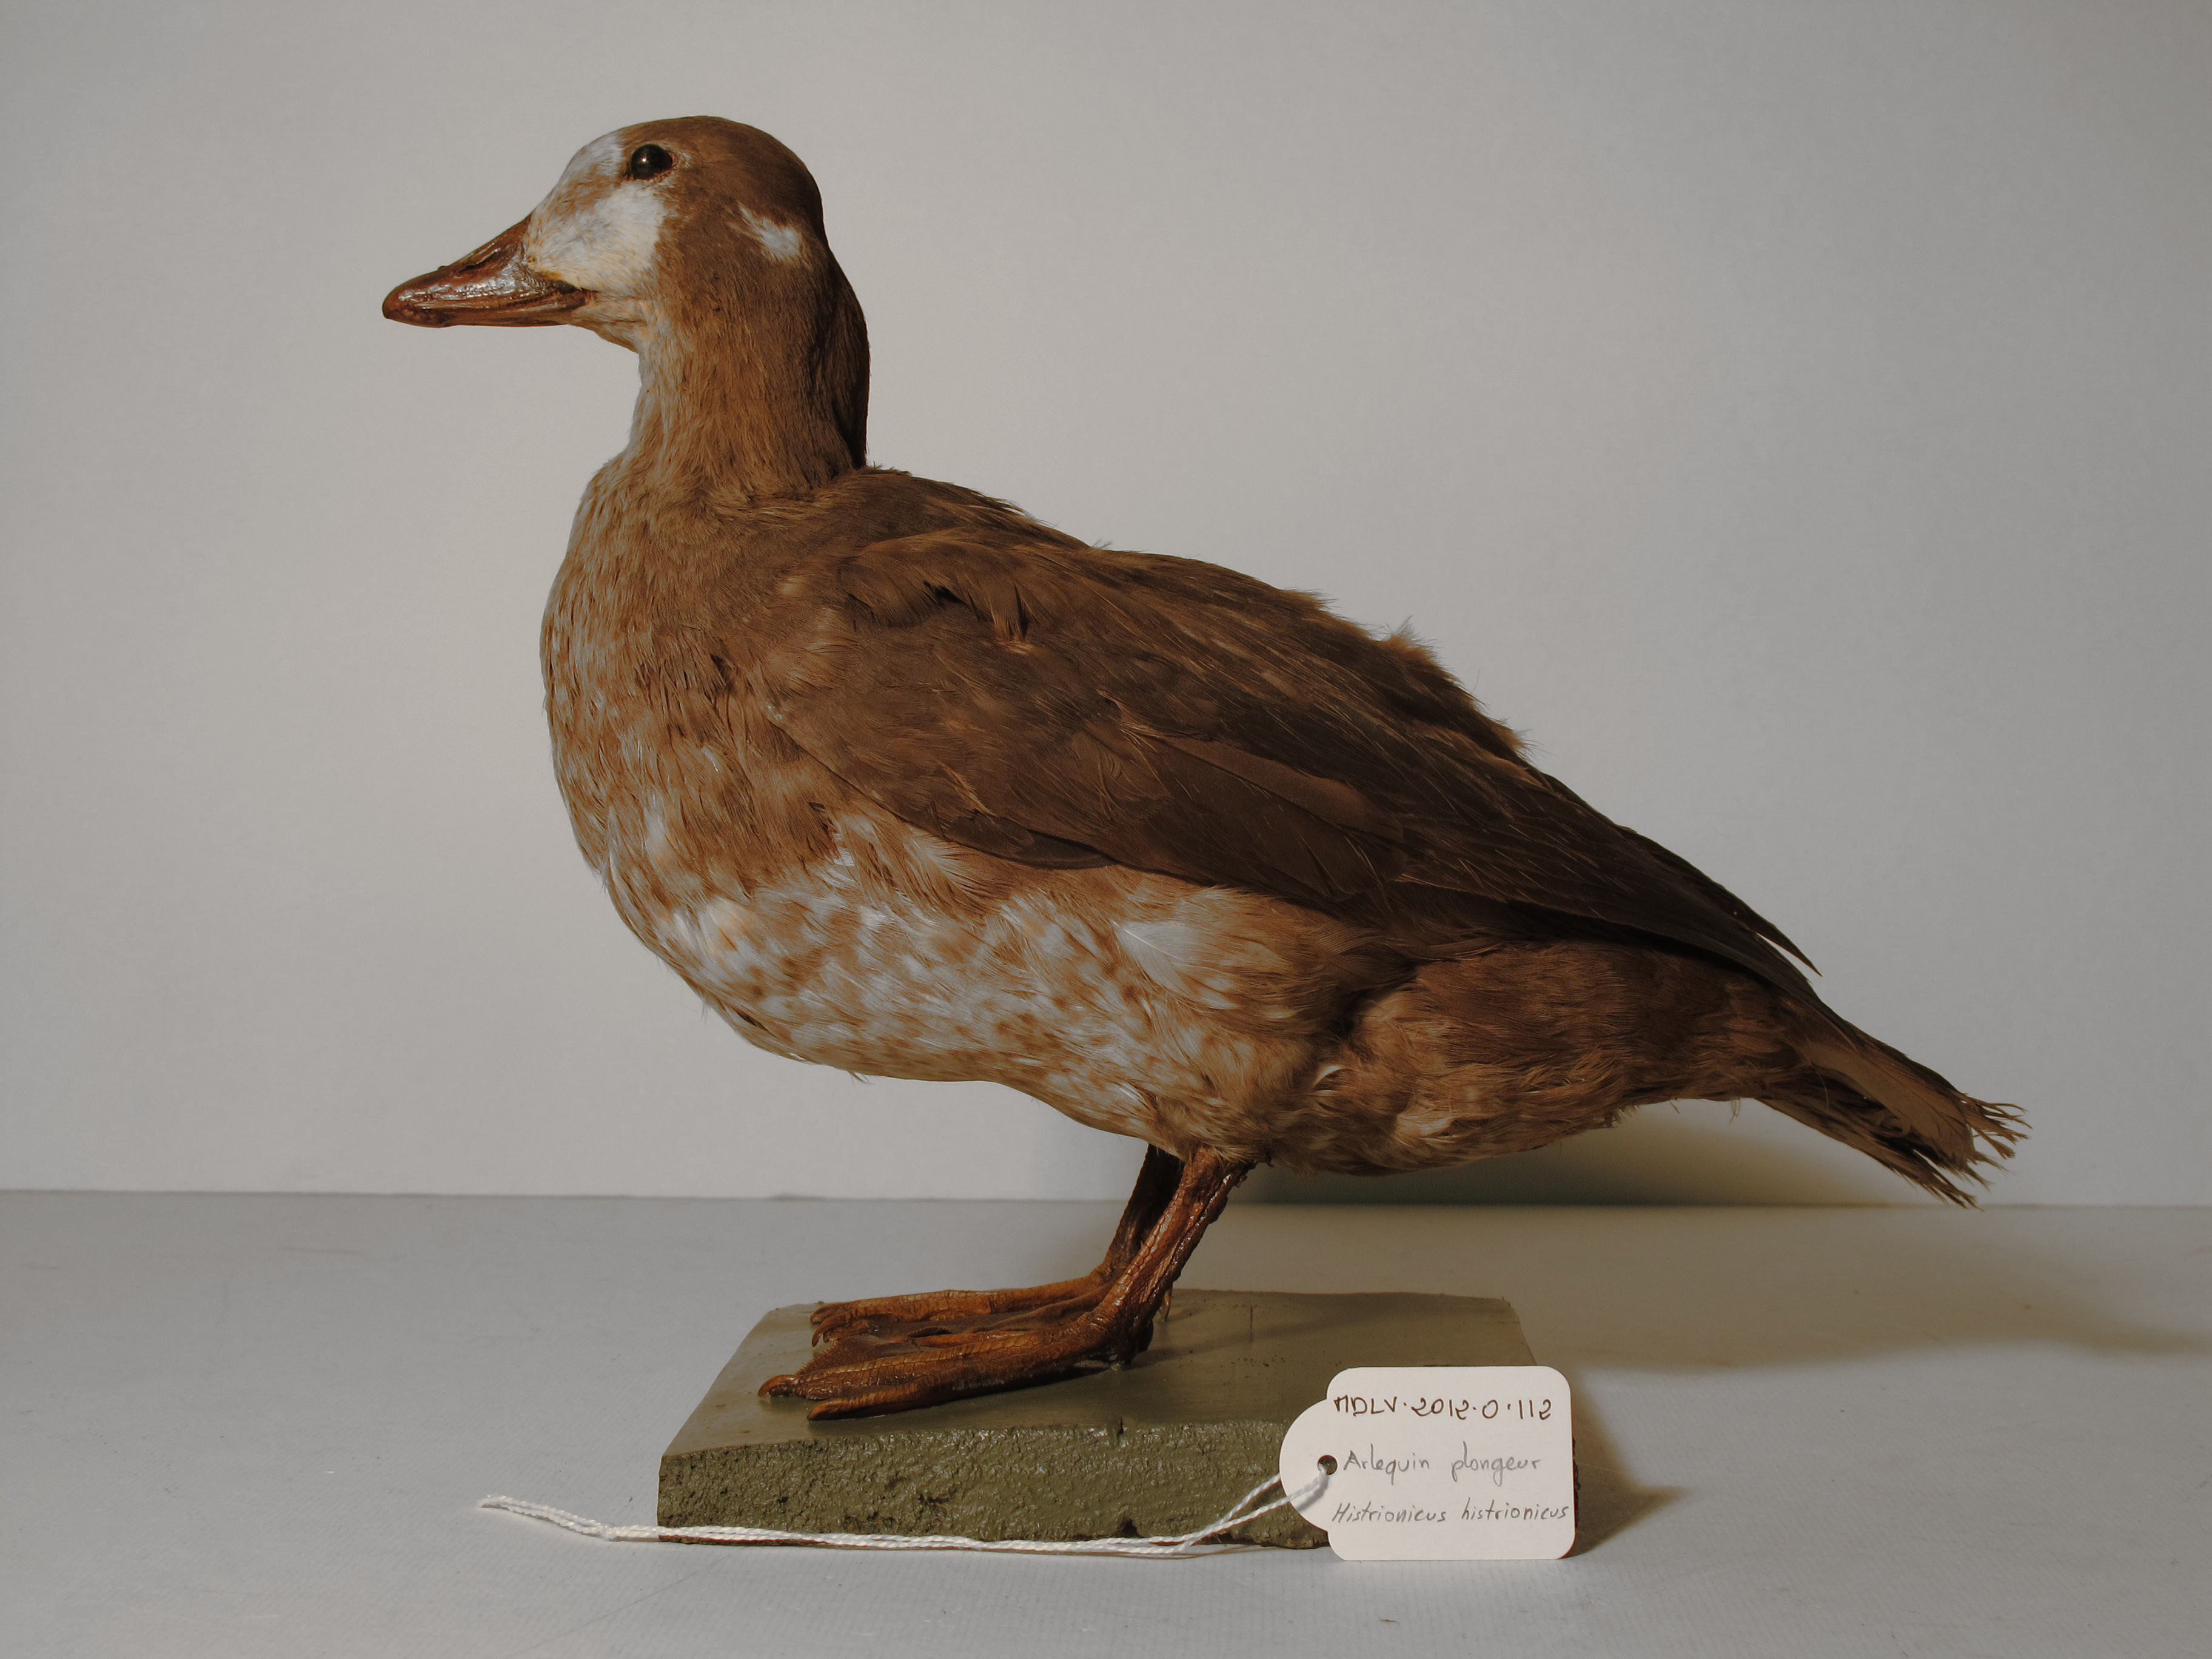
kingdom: Animalia
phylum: Chordata
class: Aves
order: Anseriformes
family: Anatidae
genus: Histrionicus
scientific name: Histrionicus histrionicus
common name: Harlequin Duck
